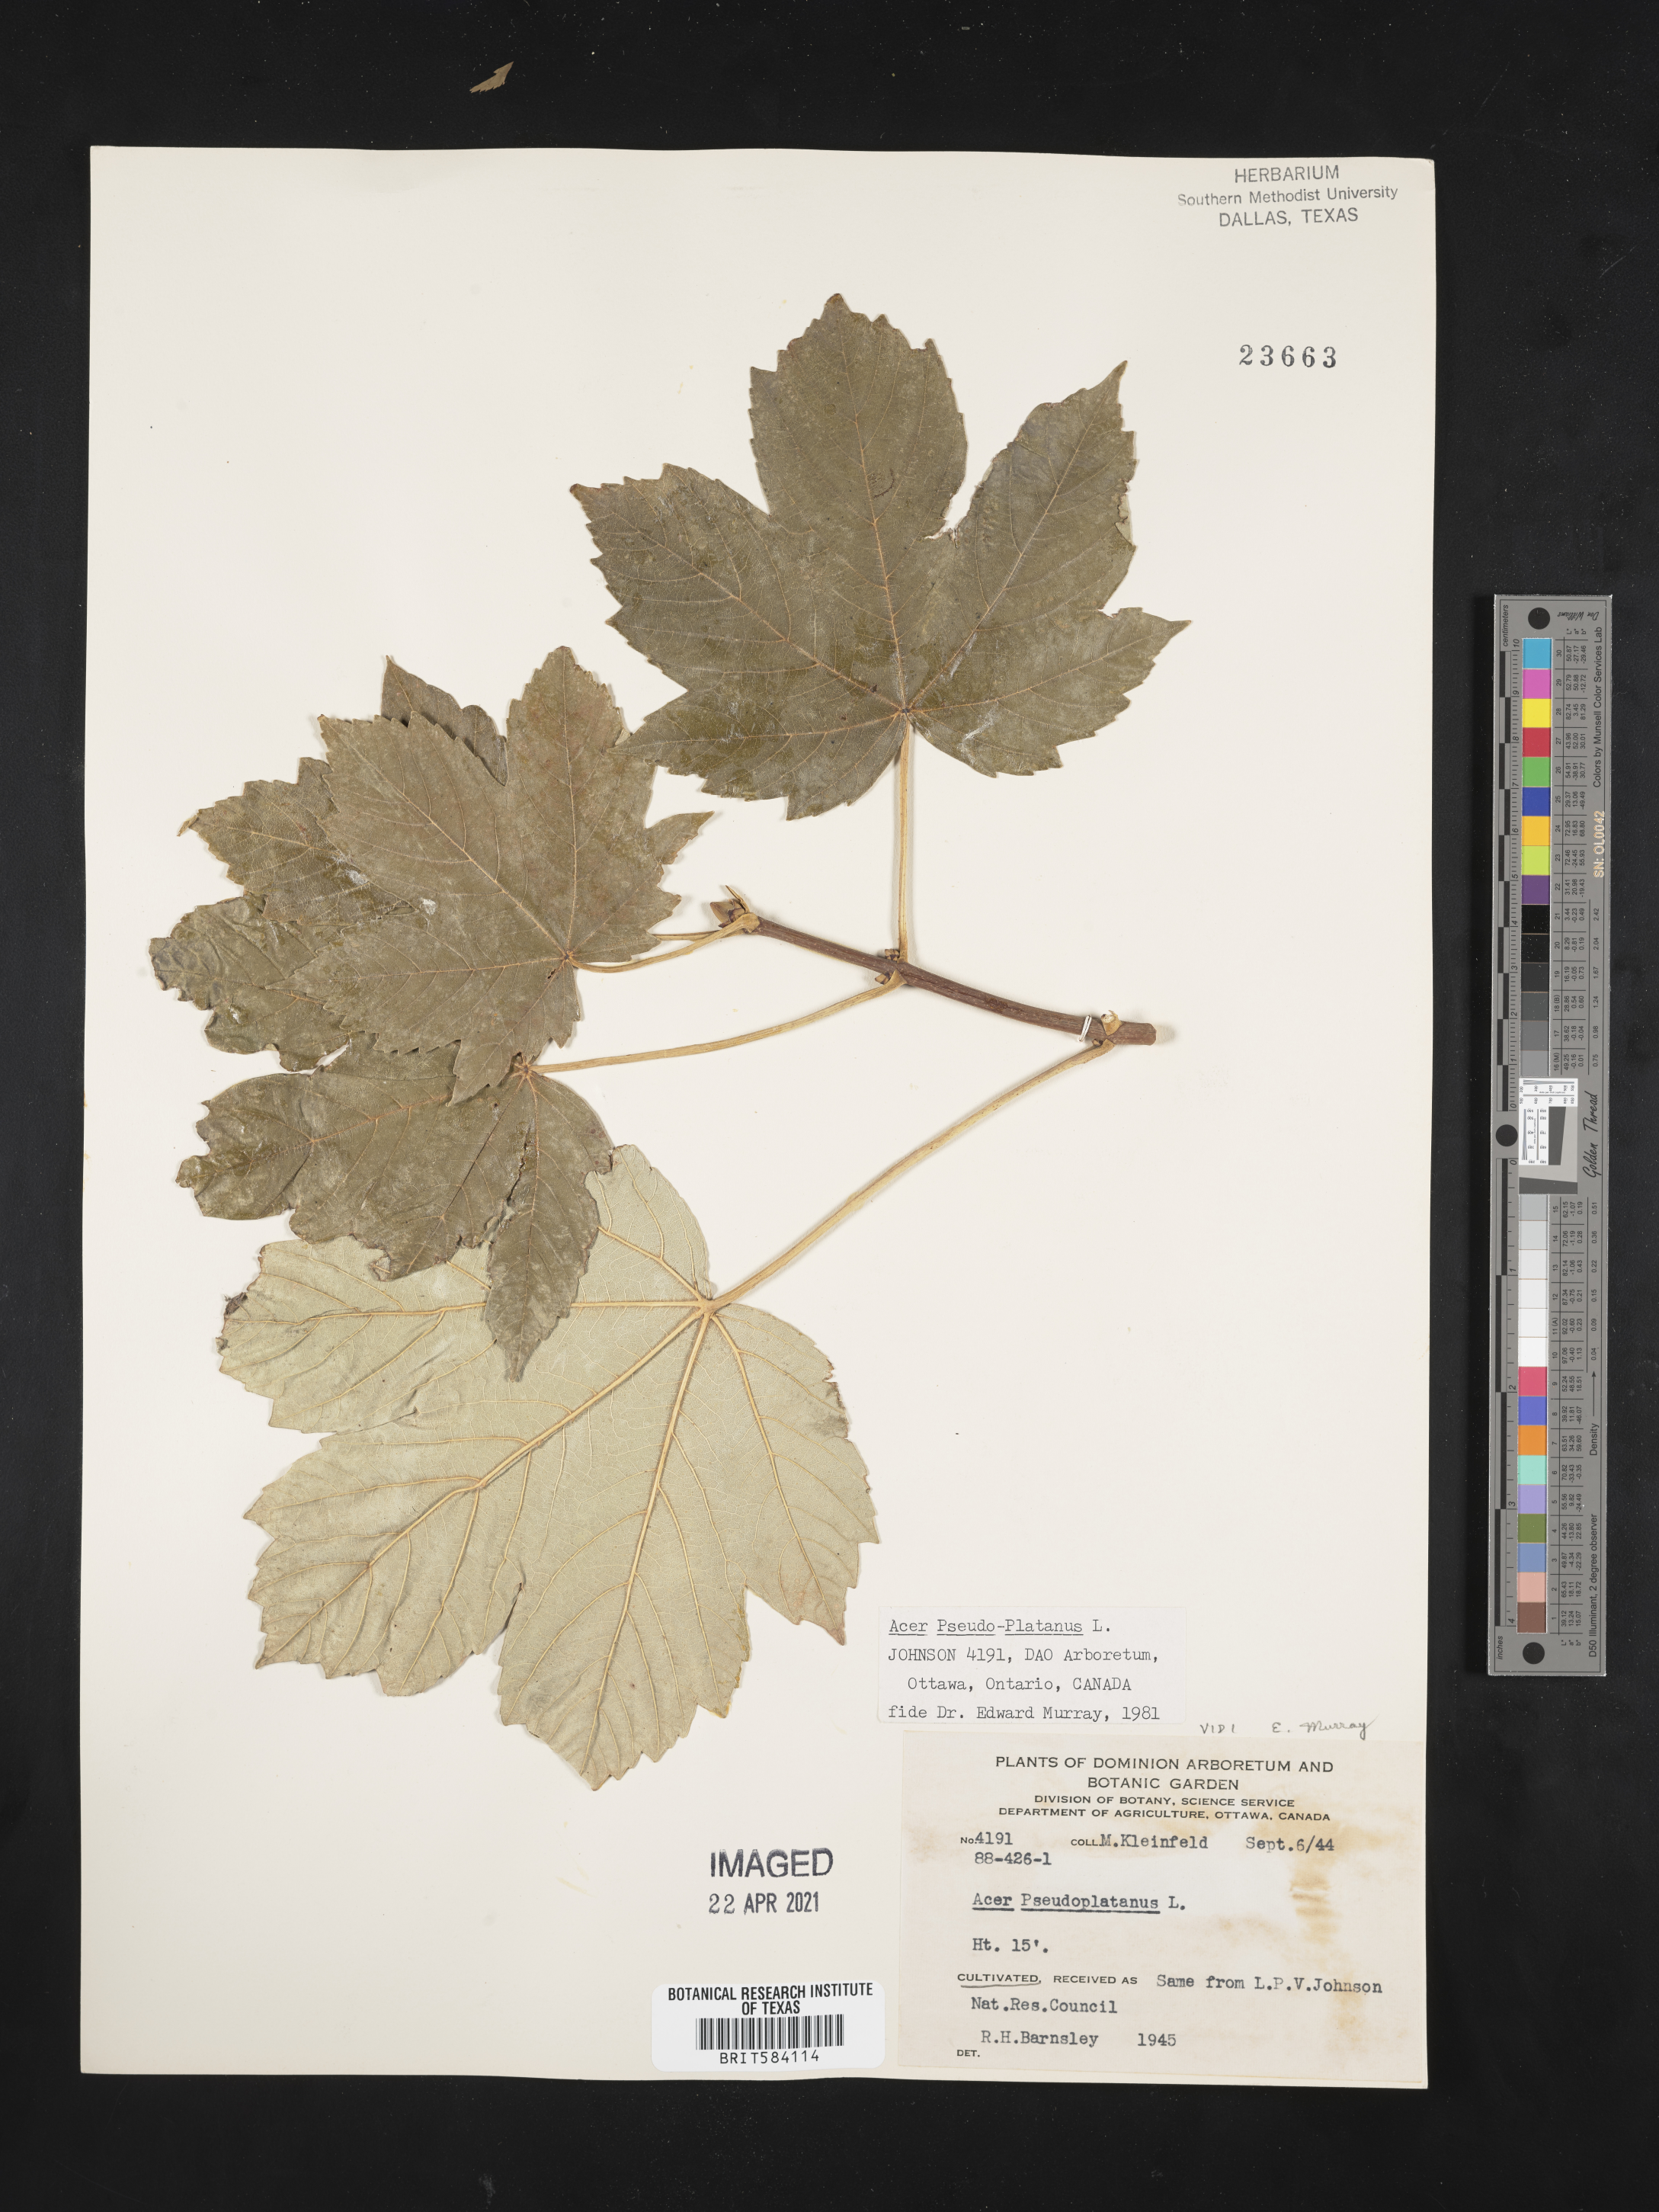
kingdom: Plantae
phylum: Tracheophyta
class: Magnoliopsida
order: Sapindales
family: Sapindaceae
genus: Acer
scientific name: Acer pseudoplatanus
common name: Sycamore
